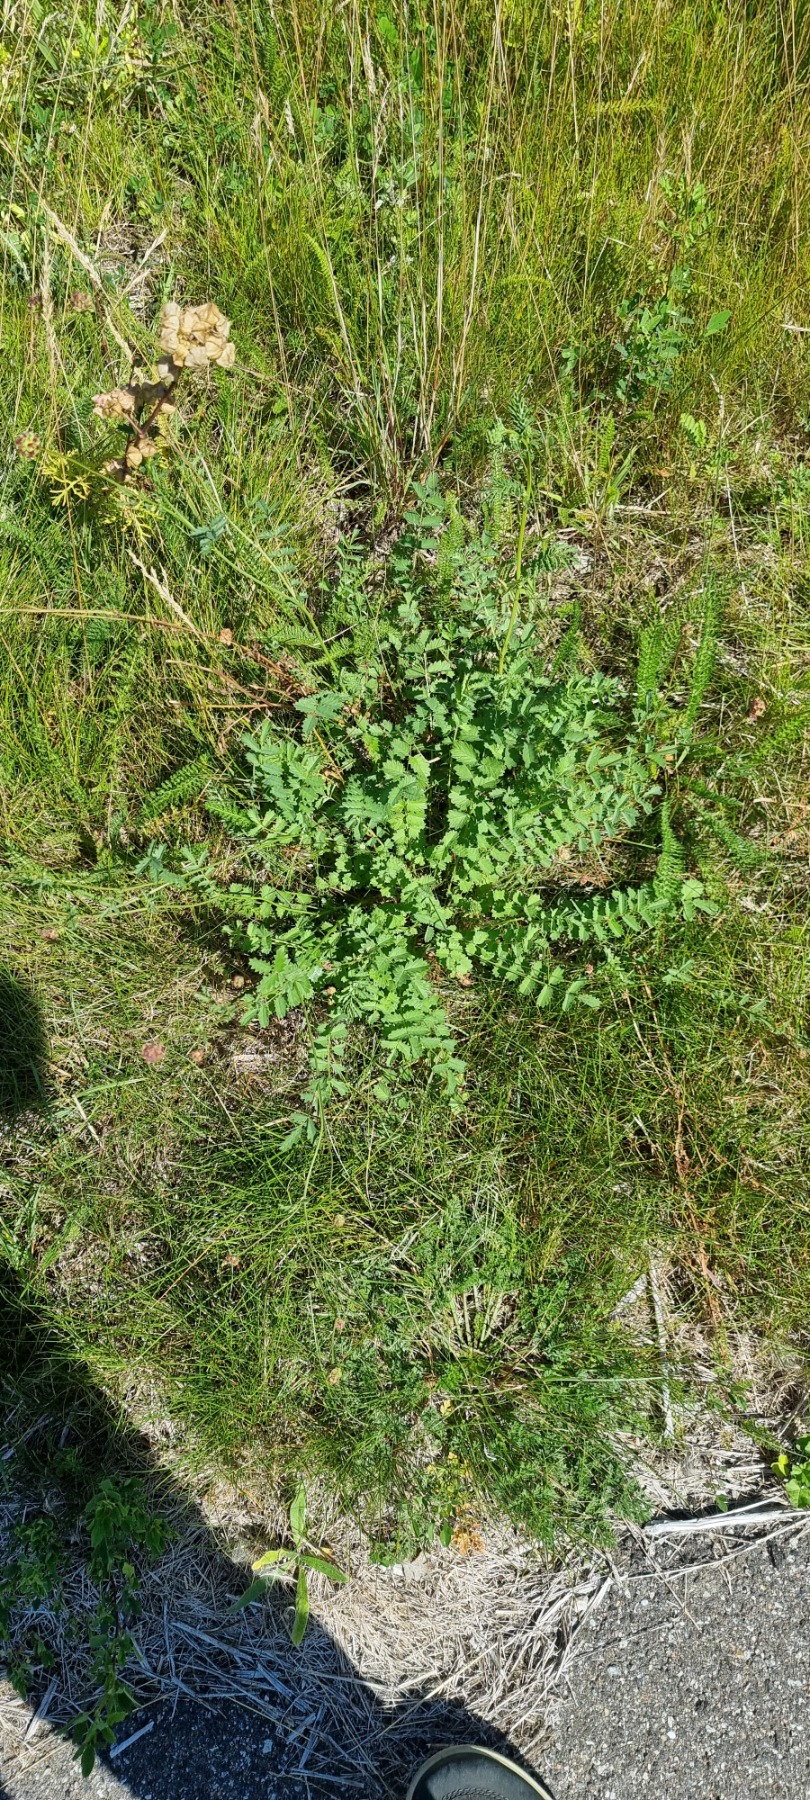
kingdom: Plantae
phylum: Tracheophyta
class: Magnoliopsida
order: Rosales
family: Rosaceae
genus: Poterium
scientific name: Poterium sanguisorba
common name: Bibernelle
